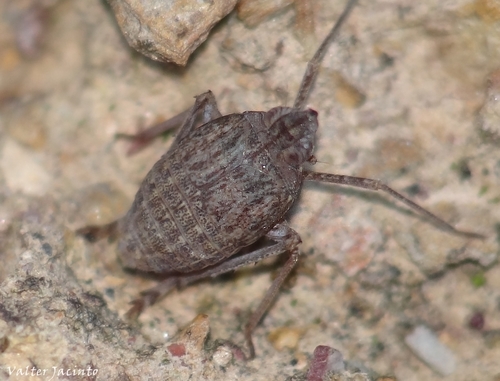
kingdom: Animalia
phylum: Arthropoda
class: Insecta
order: Hemiptera
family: Dictyopharidae
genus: Parorgerioides
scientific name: Parorgerioides perezii
